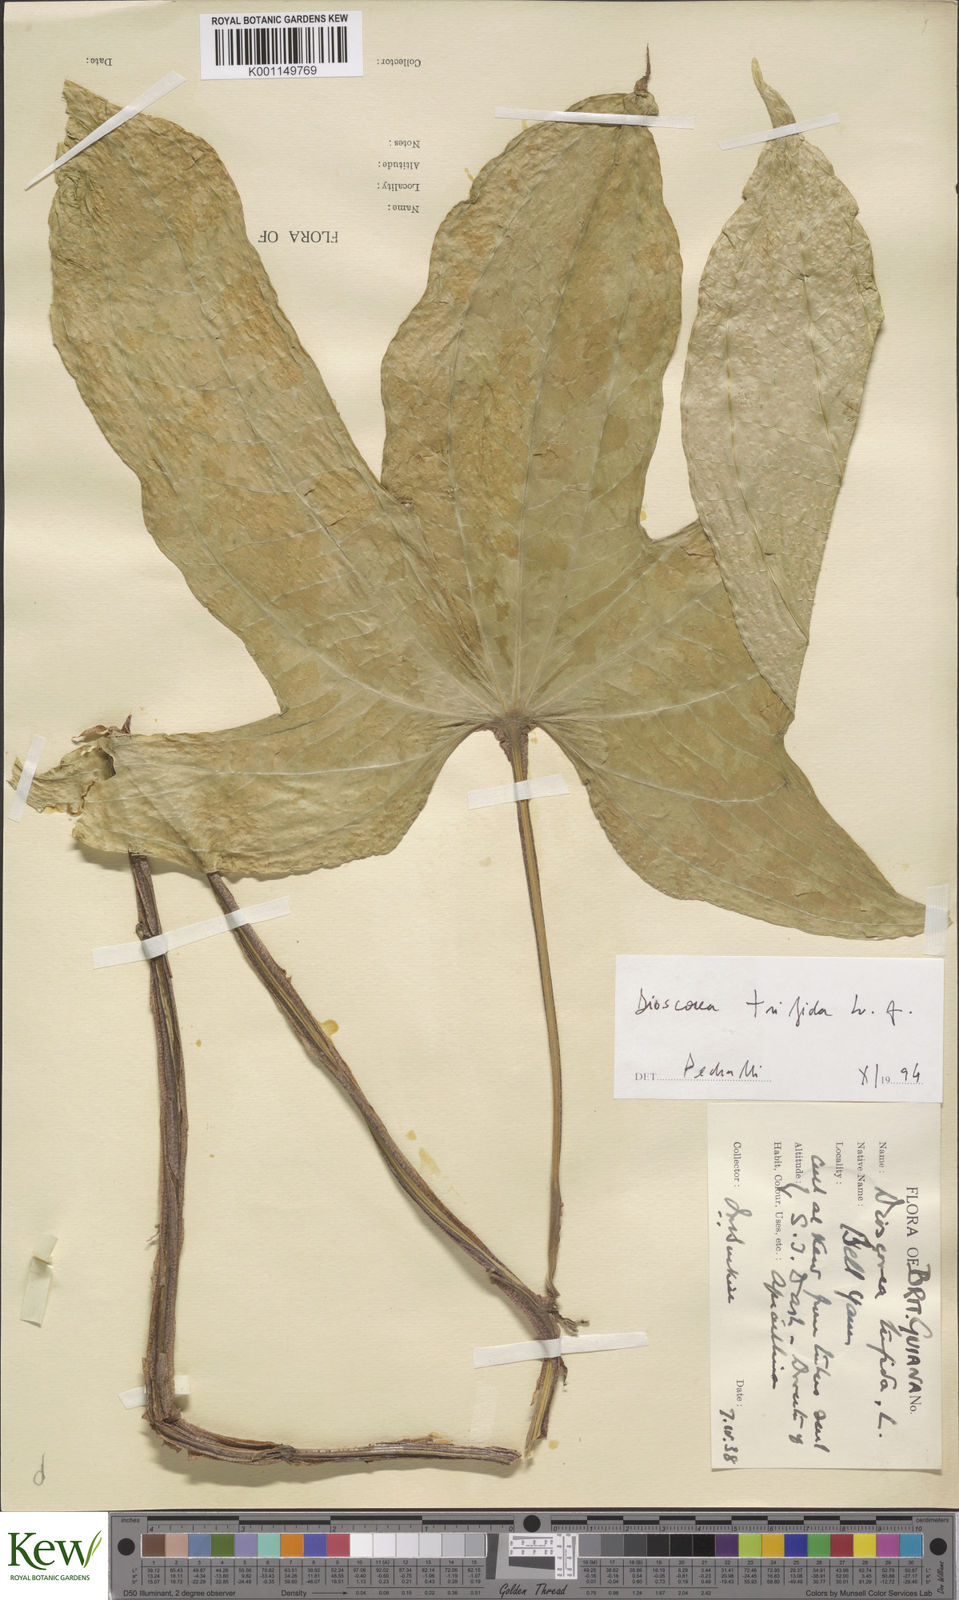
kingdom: Plantae
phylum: Tracheophyta
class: Liliopsida
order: Dioscoreales
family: Dioscoreaceae
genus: Dioscorea
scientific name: Dioscorea trifida
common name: Cush-cush
